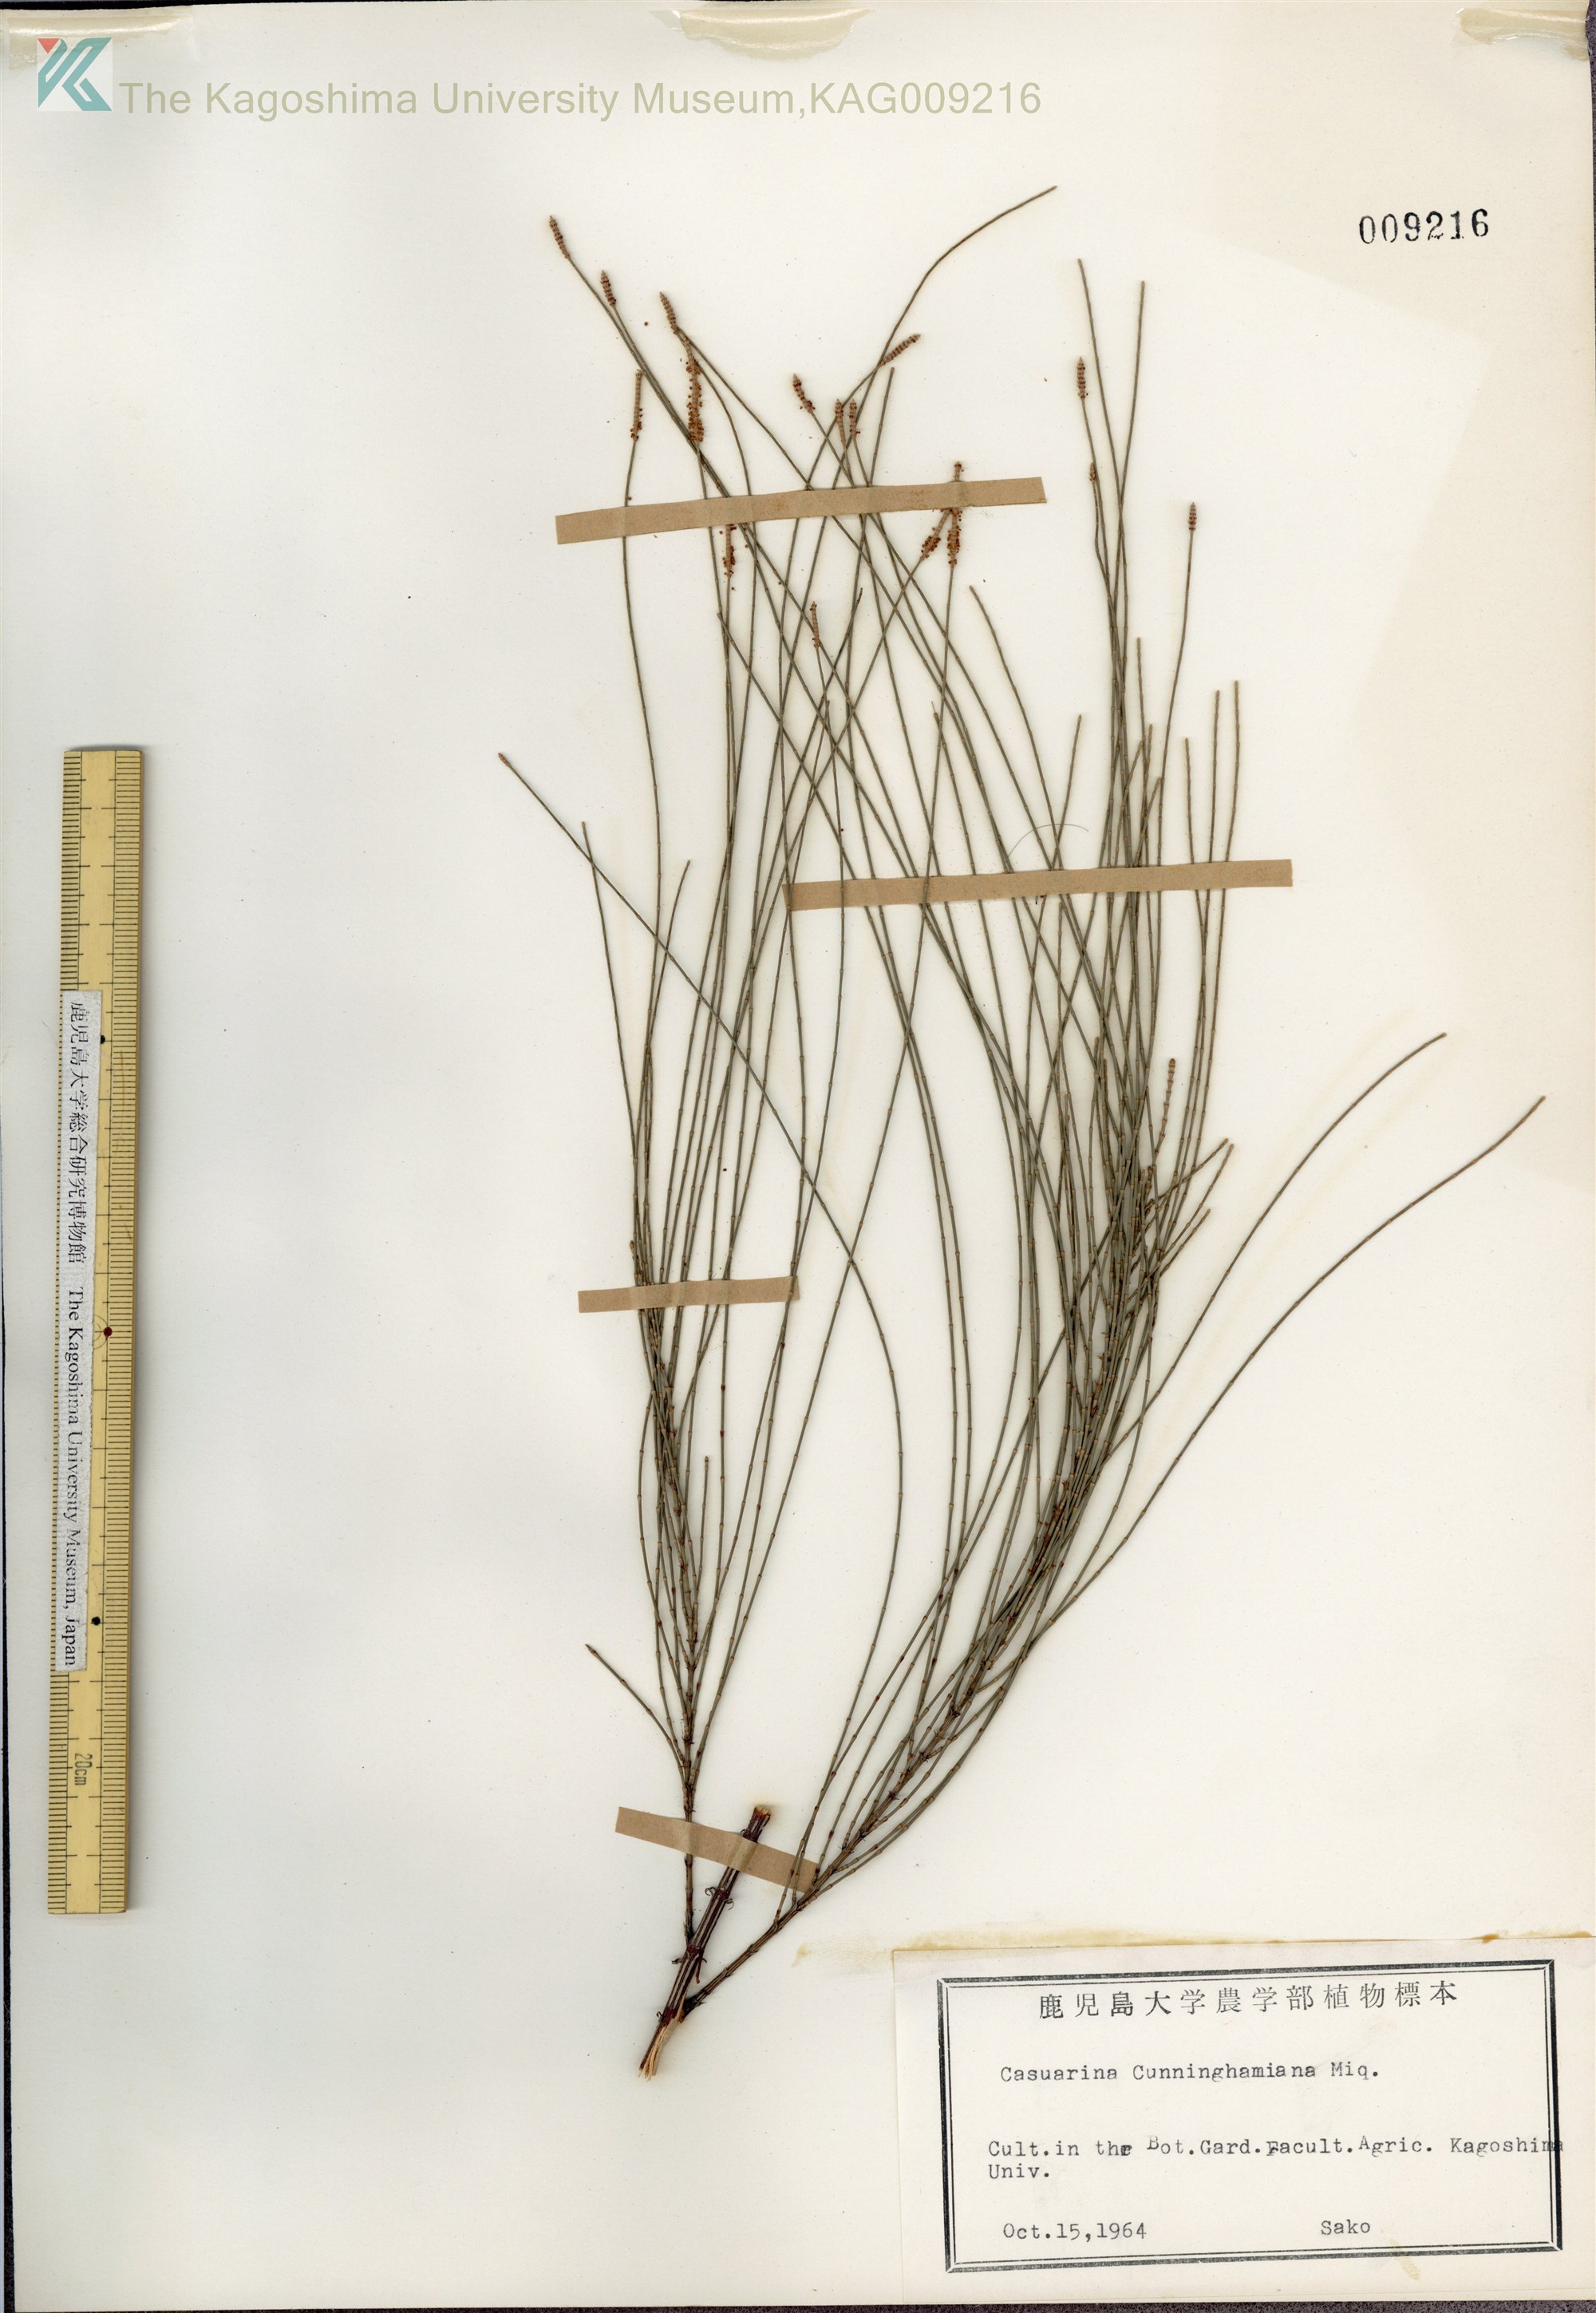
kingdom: Plantae
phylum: Tracheophyta
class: Magnoliopsida
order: Fagales
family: Casuarinaceae
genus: Casuarina
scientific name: Casuarina cunninghamiana
